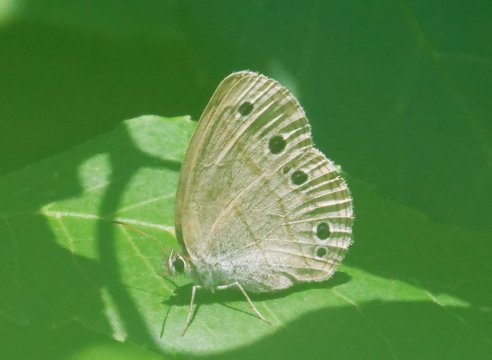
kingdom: Animalia
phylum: Arthropoda
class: Insecta
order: Lepidoptera
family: Nymphalidae
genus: Euptychia
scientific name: Euptychia cymela
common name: Little Wood Satyr
